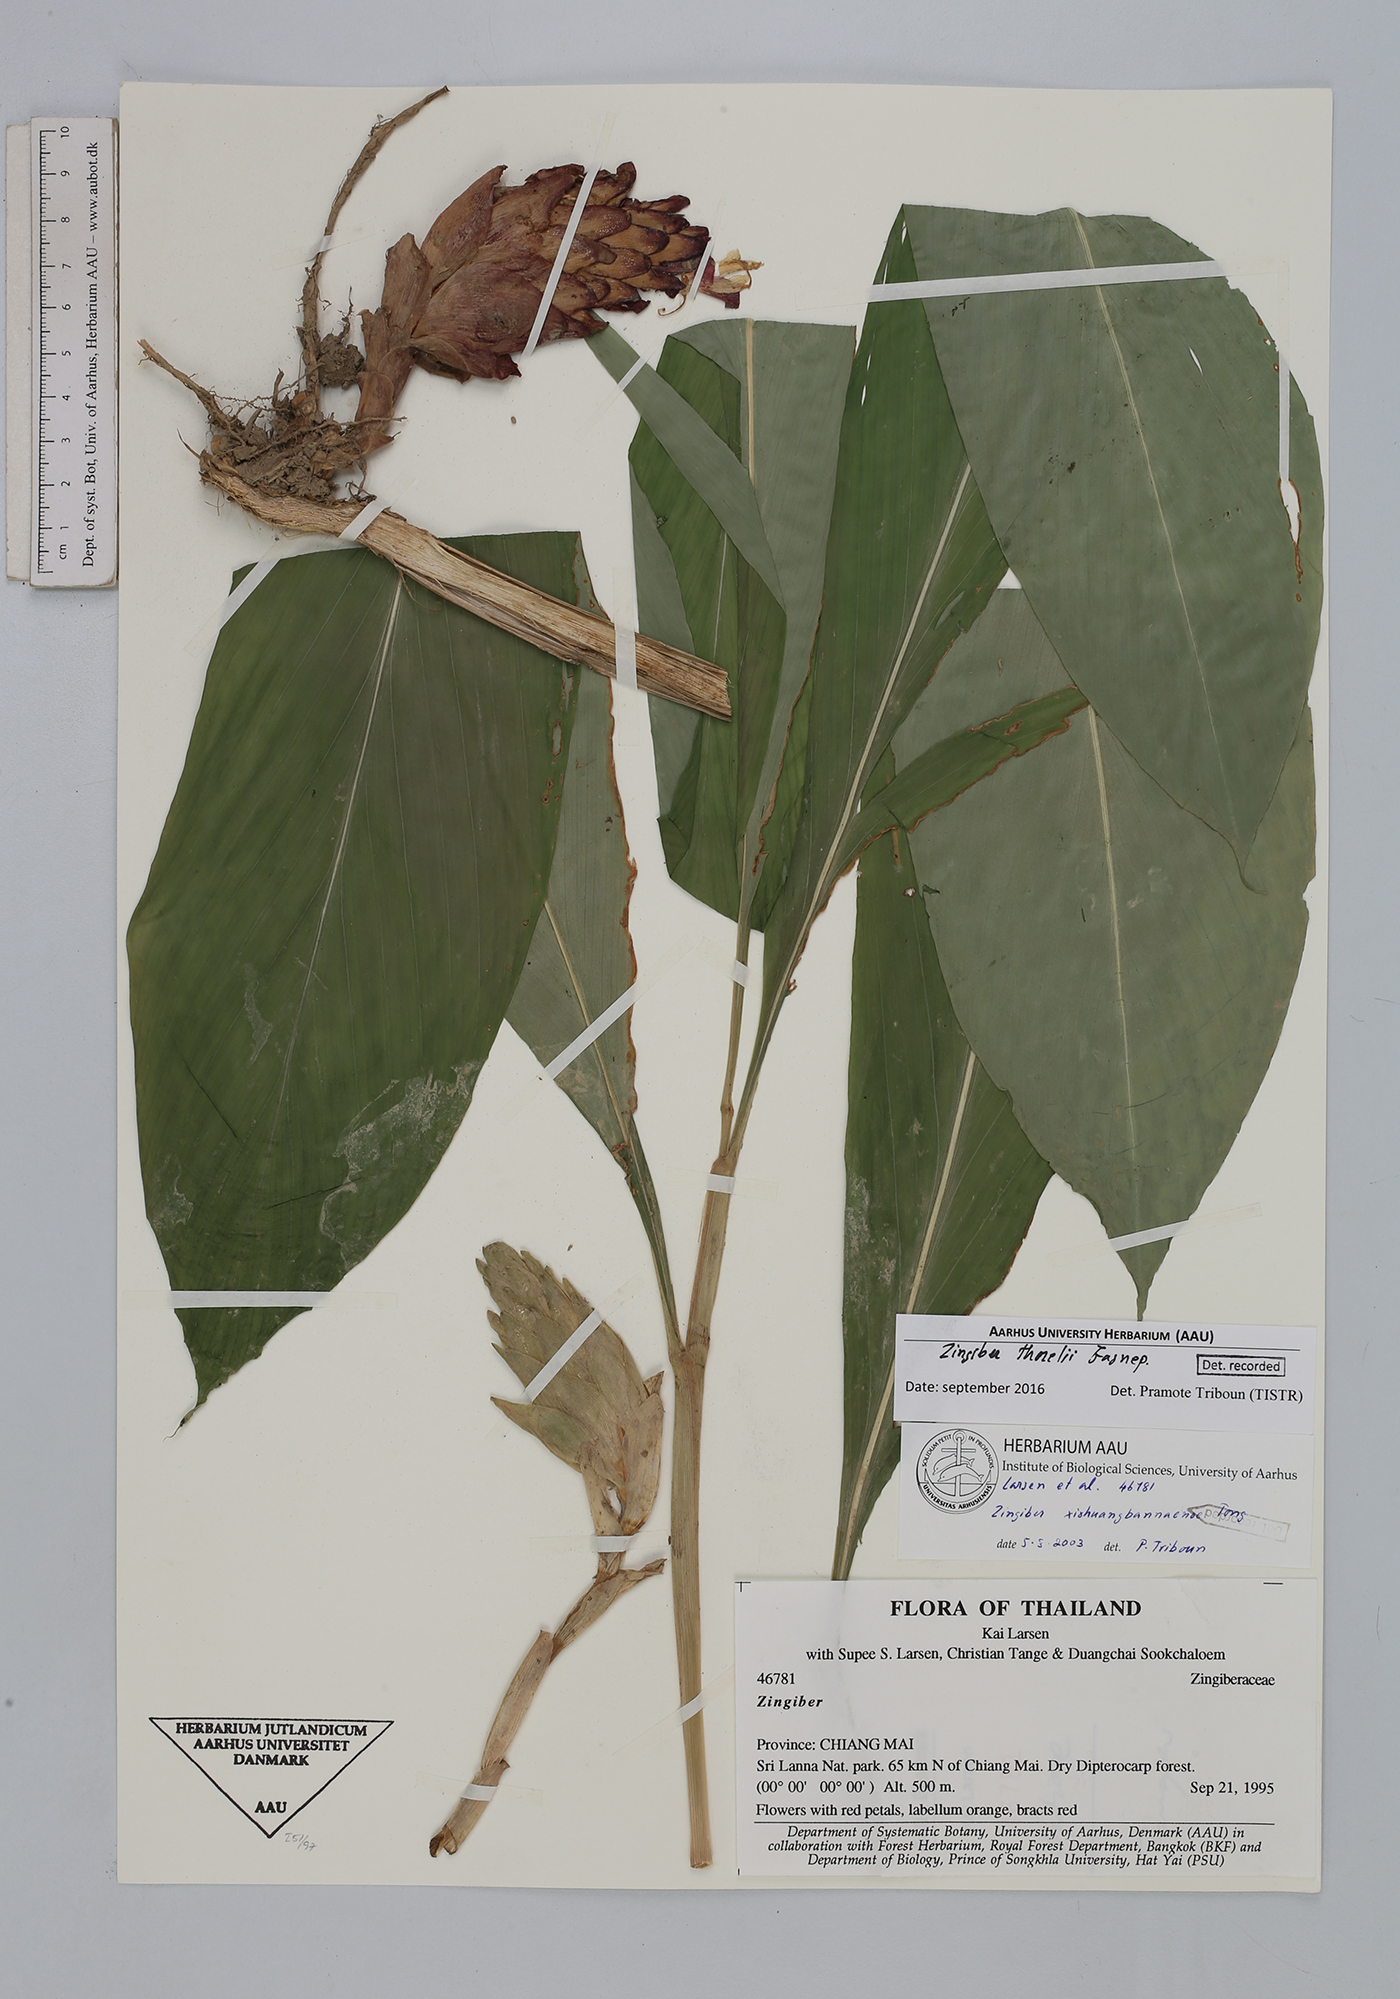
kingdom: Plantae
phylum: Tracheophyta
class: Liliopsida
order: Zingiberales
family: Zingiberaceae
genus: Zingiber
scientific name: Zingiber thorelii
